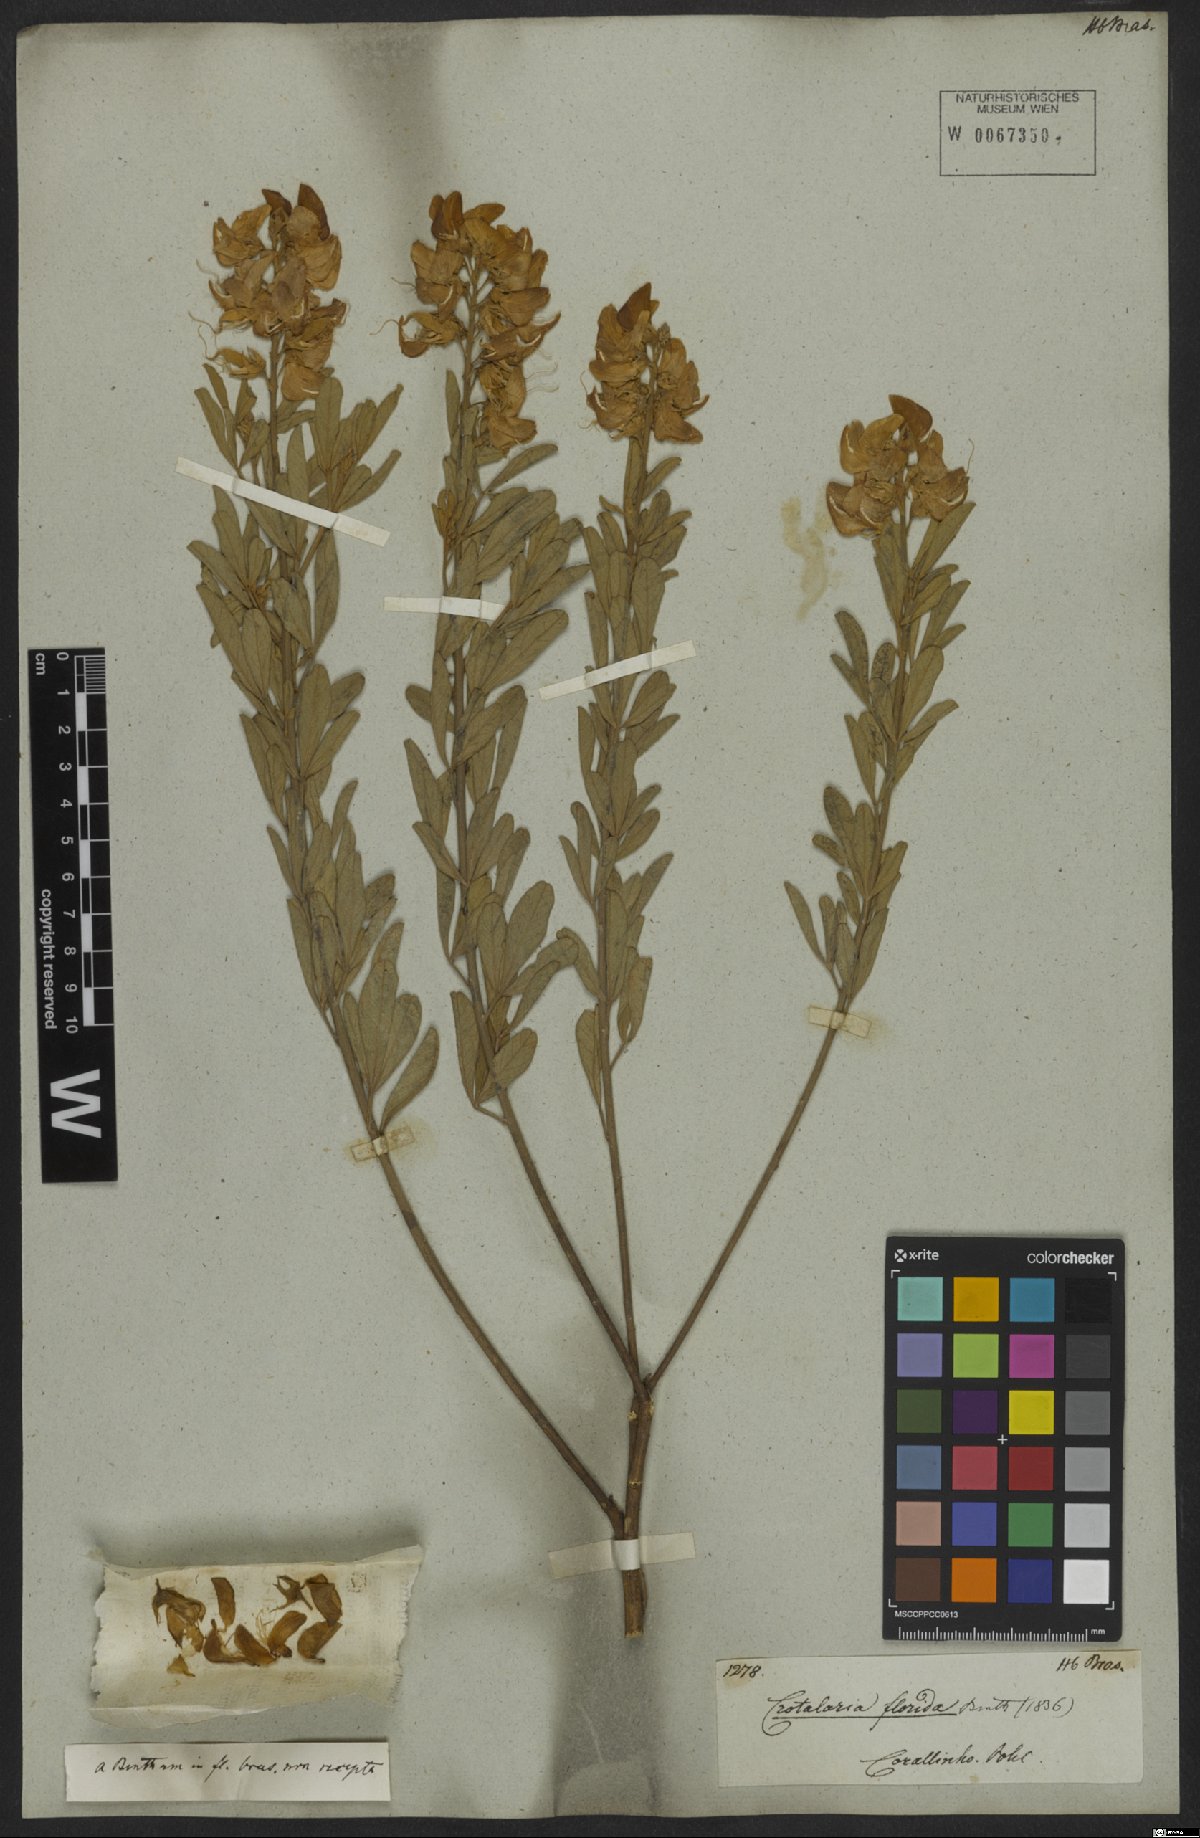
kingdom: Plantae
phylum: Tracheophyta
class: Magnoliopsida
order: Fabales
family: Fabaceae
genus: Crotalaria
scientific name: Crotalaria florida
